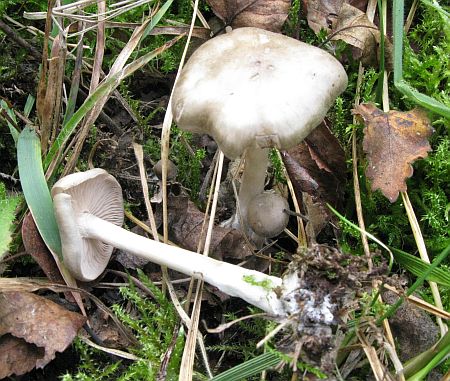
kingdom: Fungi
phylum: Basidiomycota
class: Agaricomycetes
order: Agaricales
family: Entolomataceae
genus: Entoloma
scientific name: Entoloma sericatum
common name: rank rødblad
